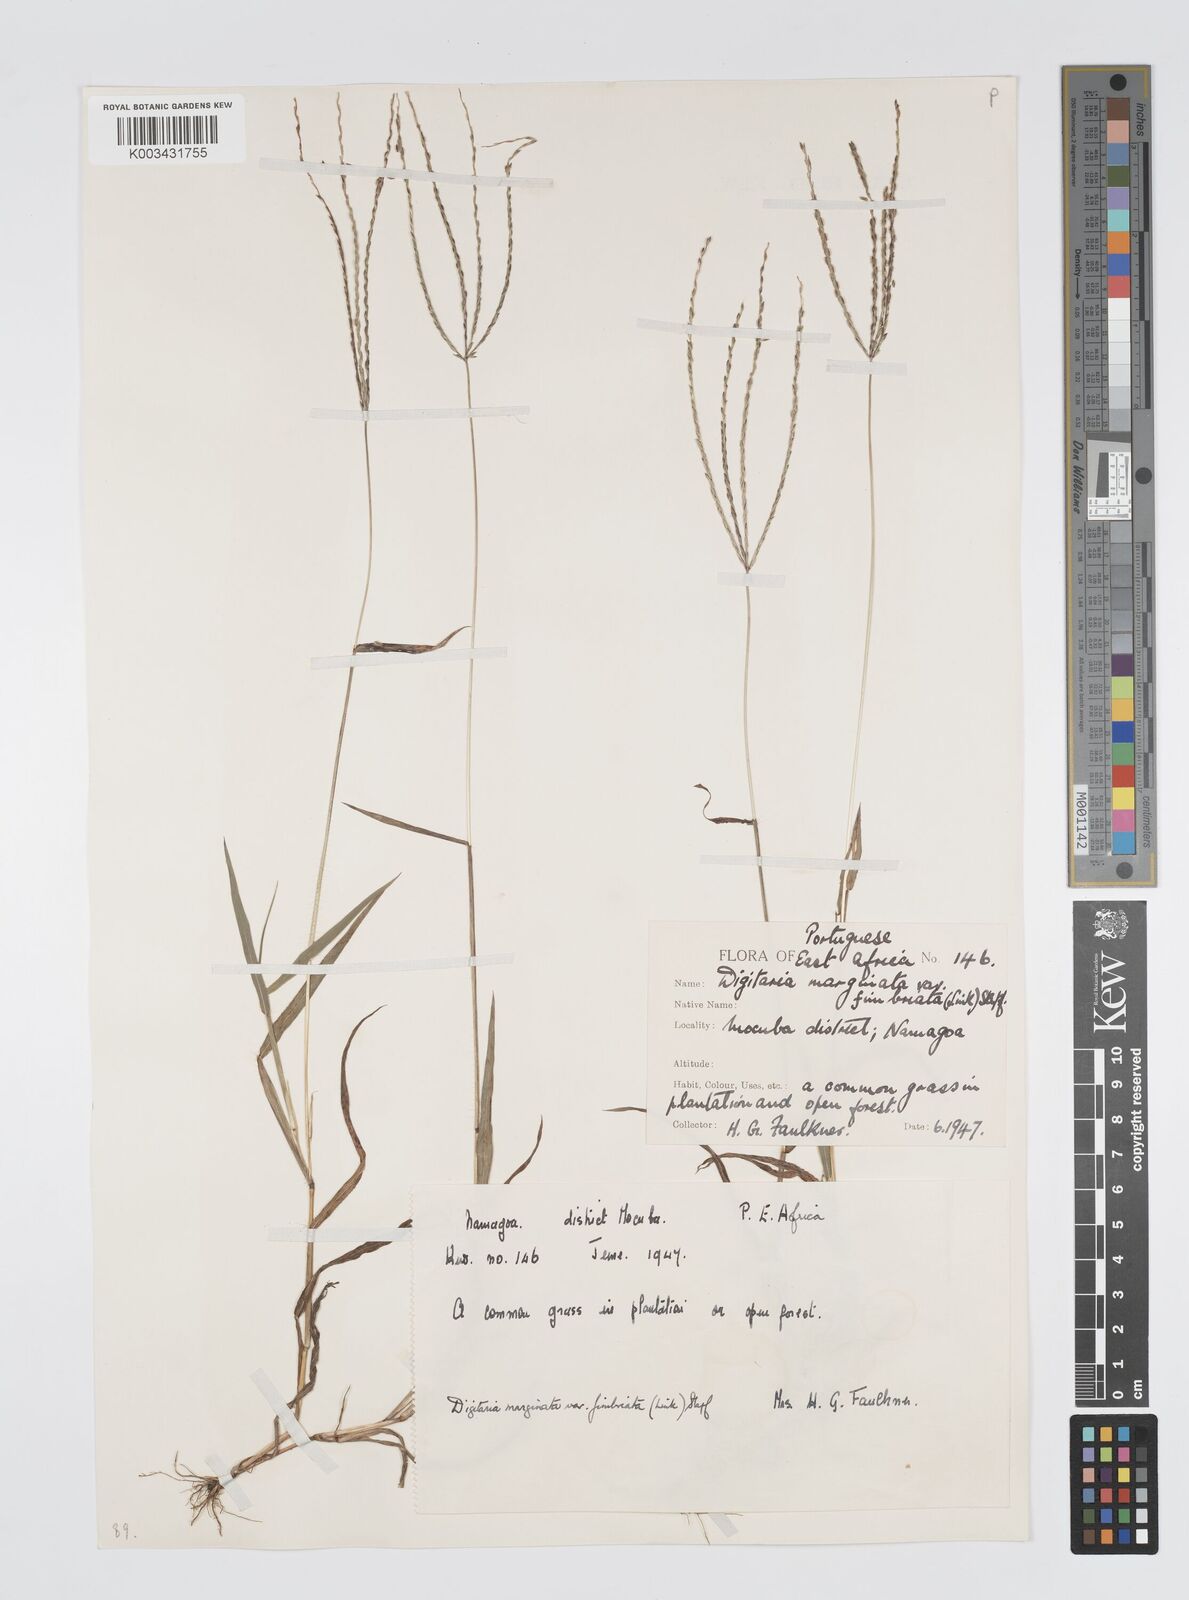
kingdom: Plantae
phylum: Tracheophyta
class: Liliopsida
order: Poales
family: Poaceae
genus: Digitaria
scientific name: Digitaria nuda
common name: Naked crabgrass
